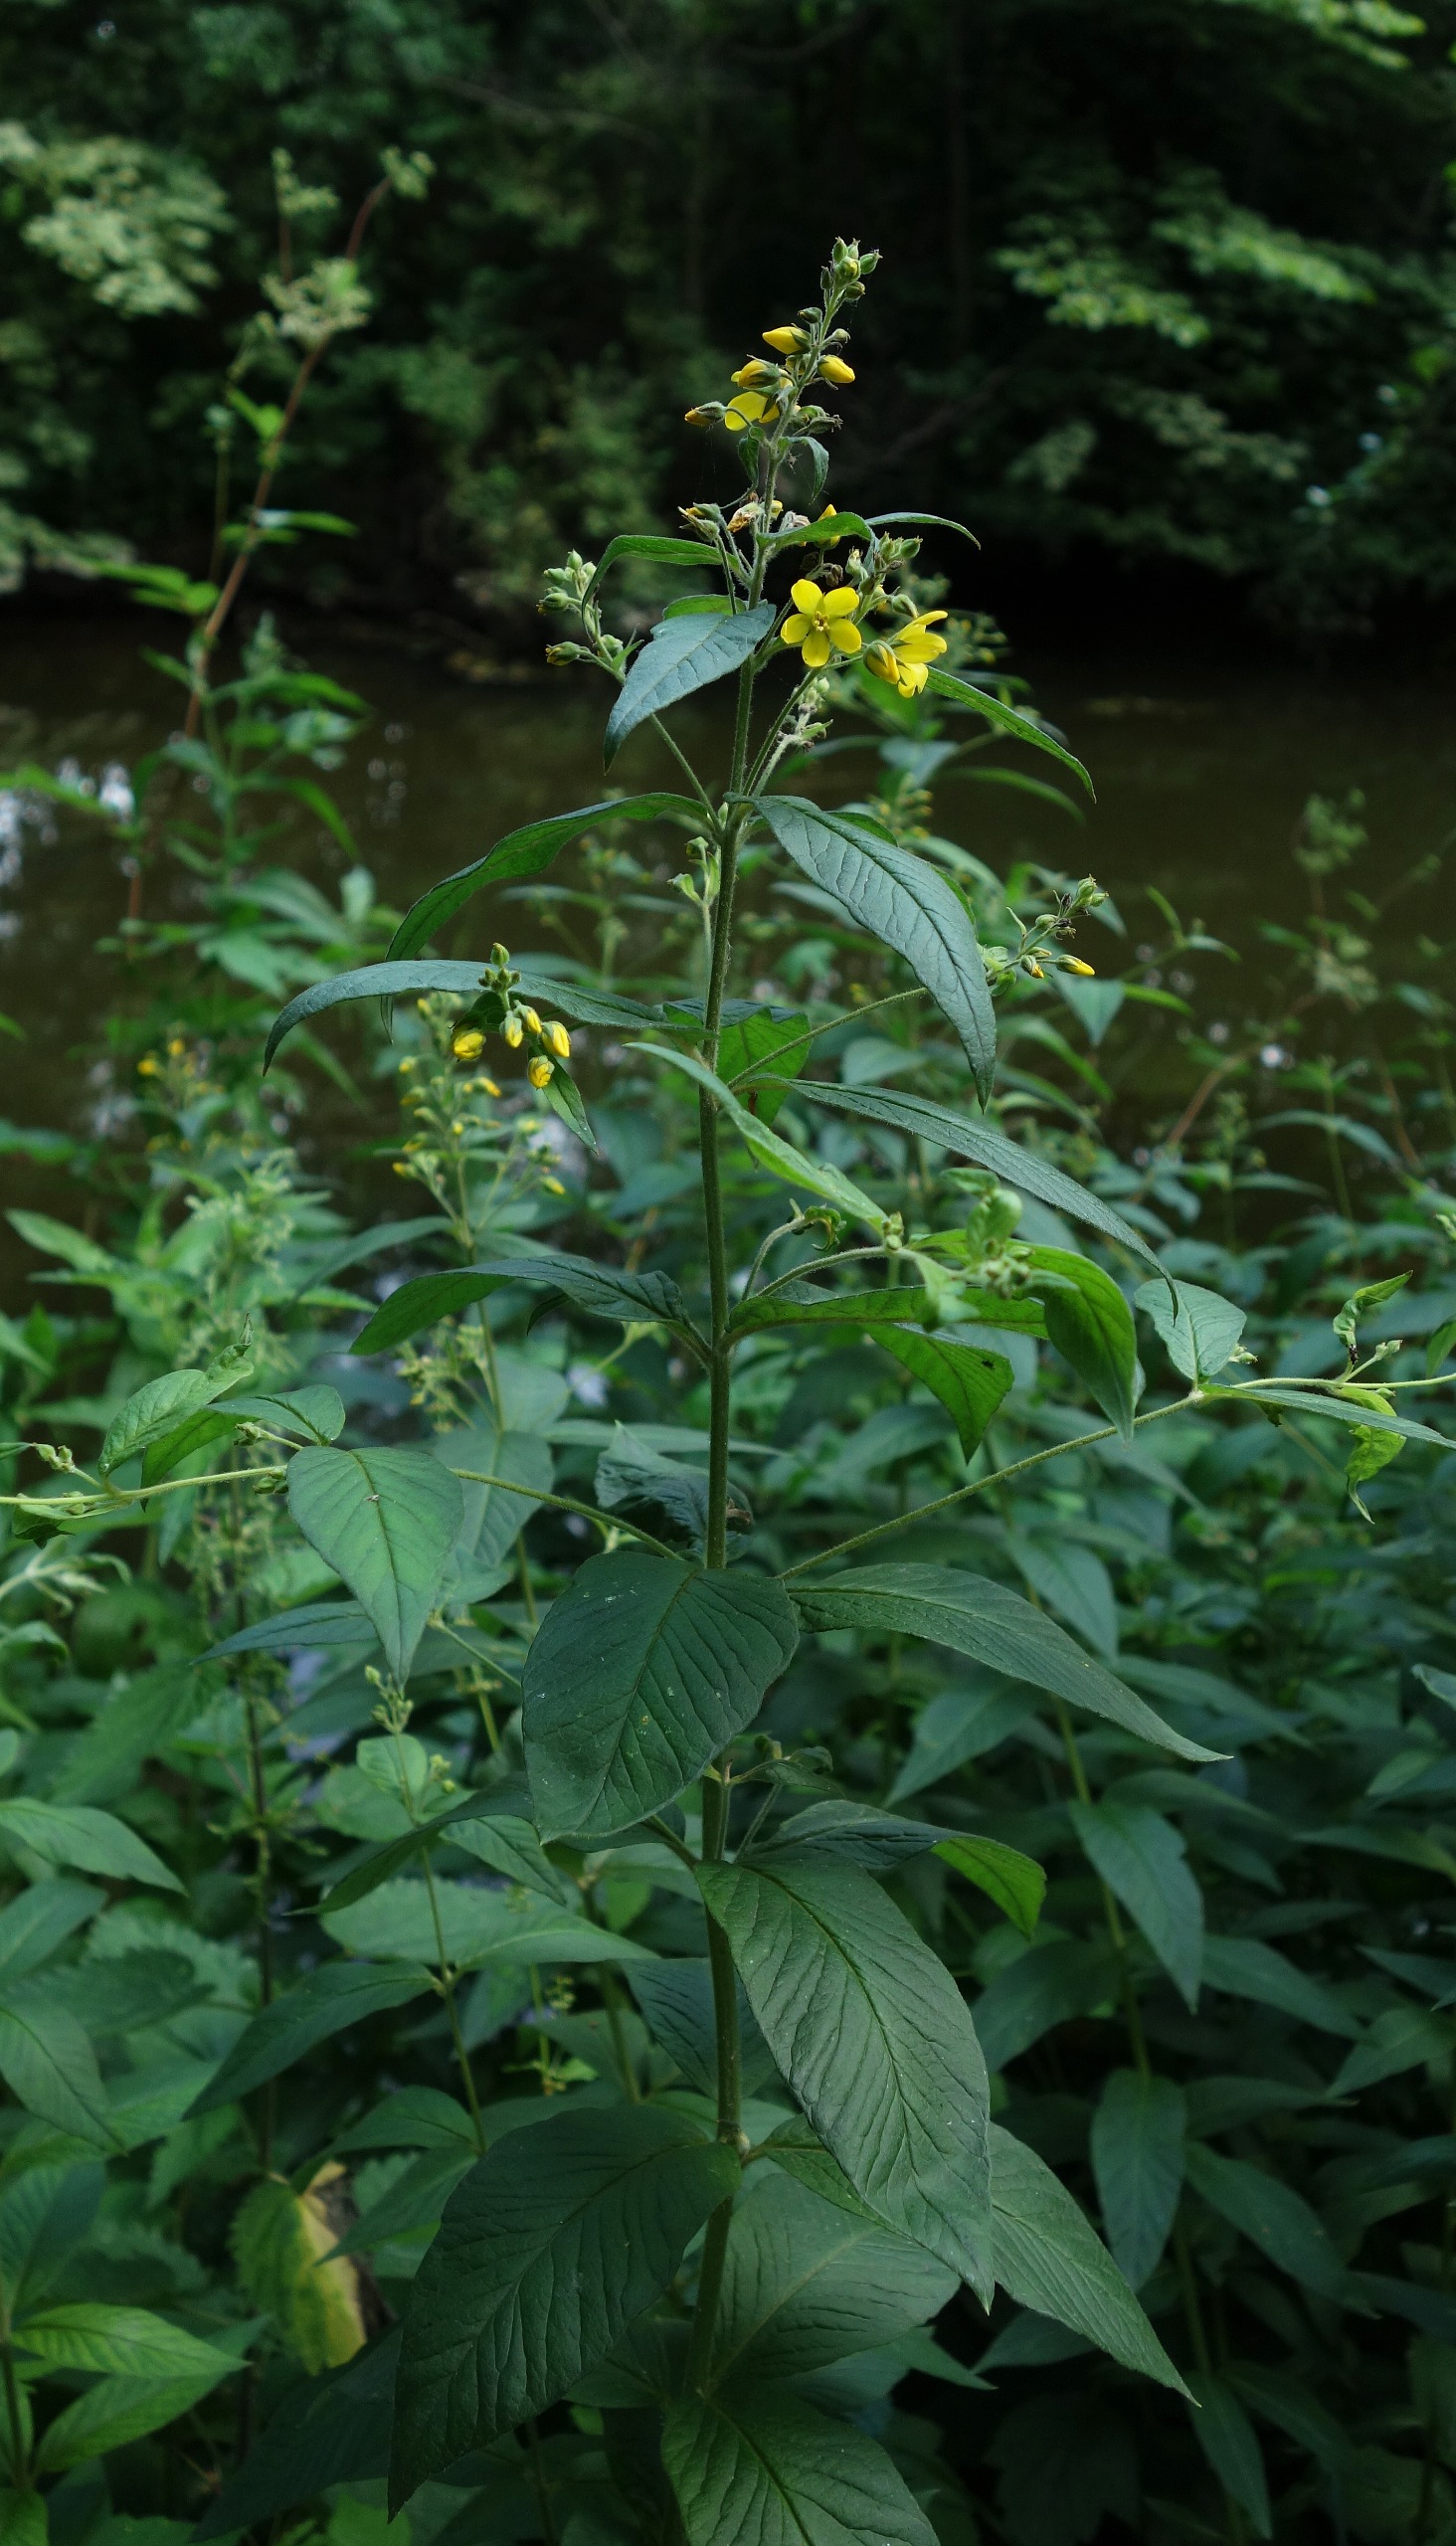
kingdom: Plantae
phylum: Tracheophyta
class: Magnoliopsida
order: Ericales
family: Primulaceae
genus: Lysimachia
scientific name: Lysimachia vulgaris
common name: Almindelig fredløs
